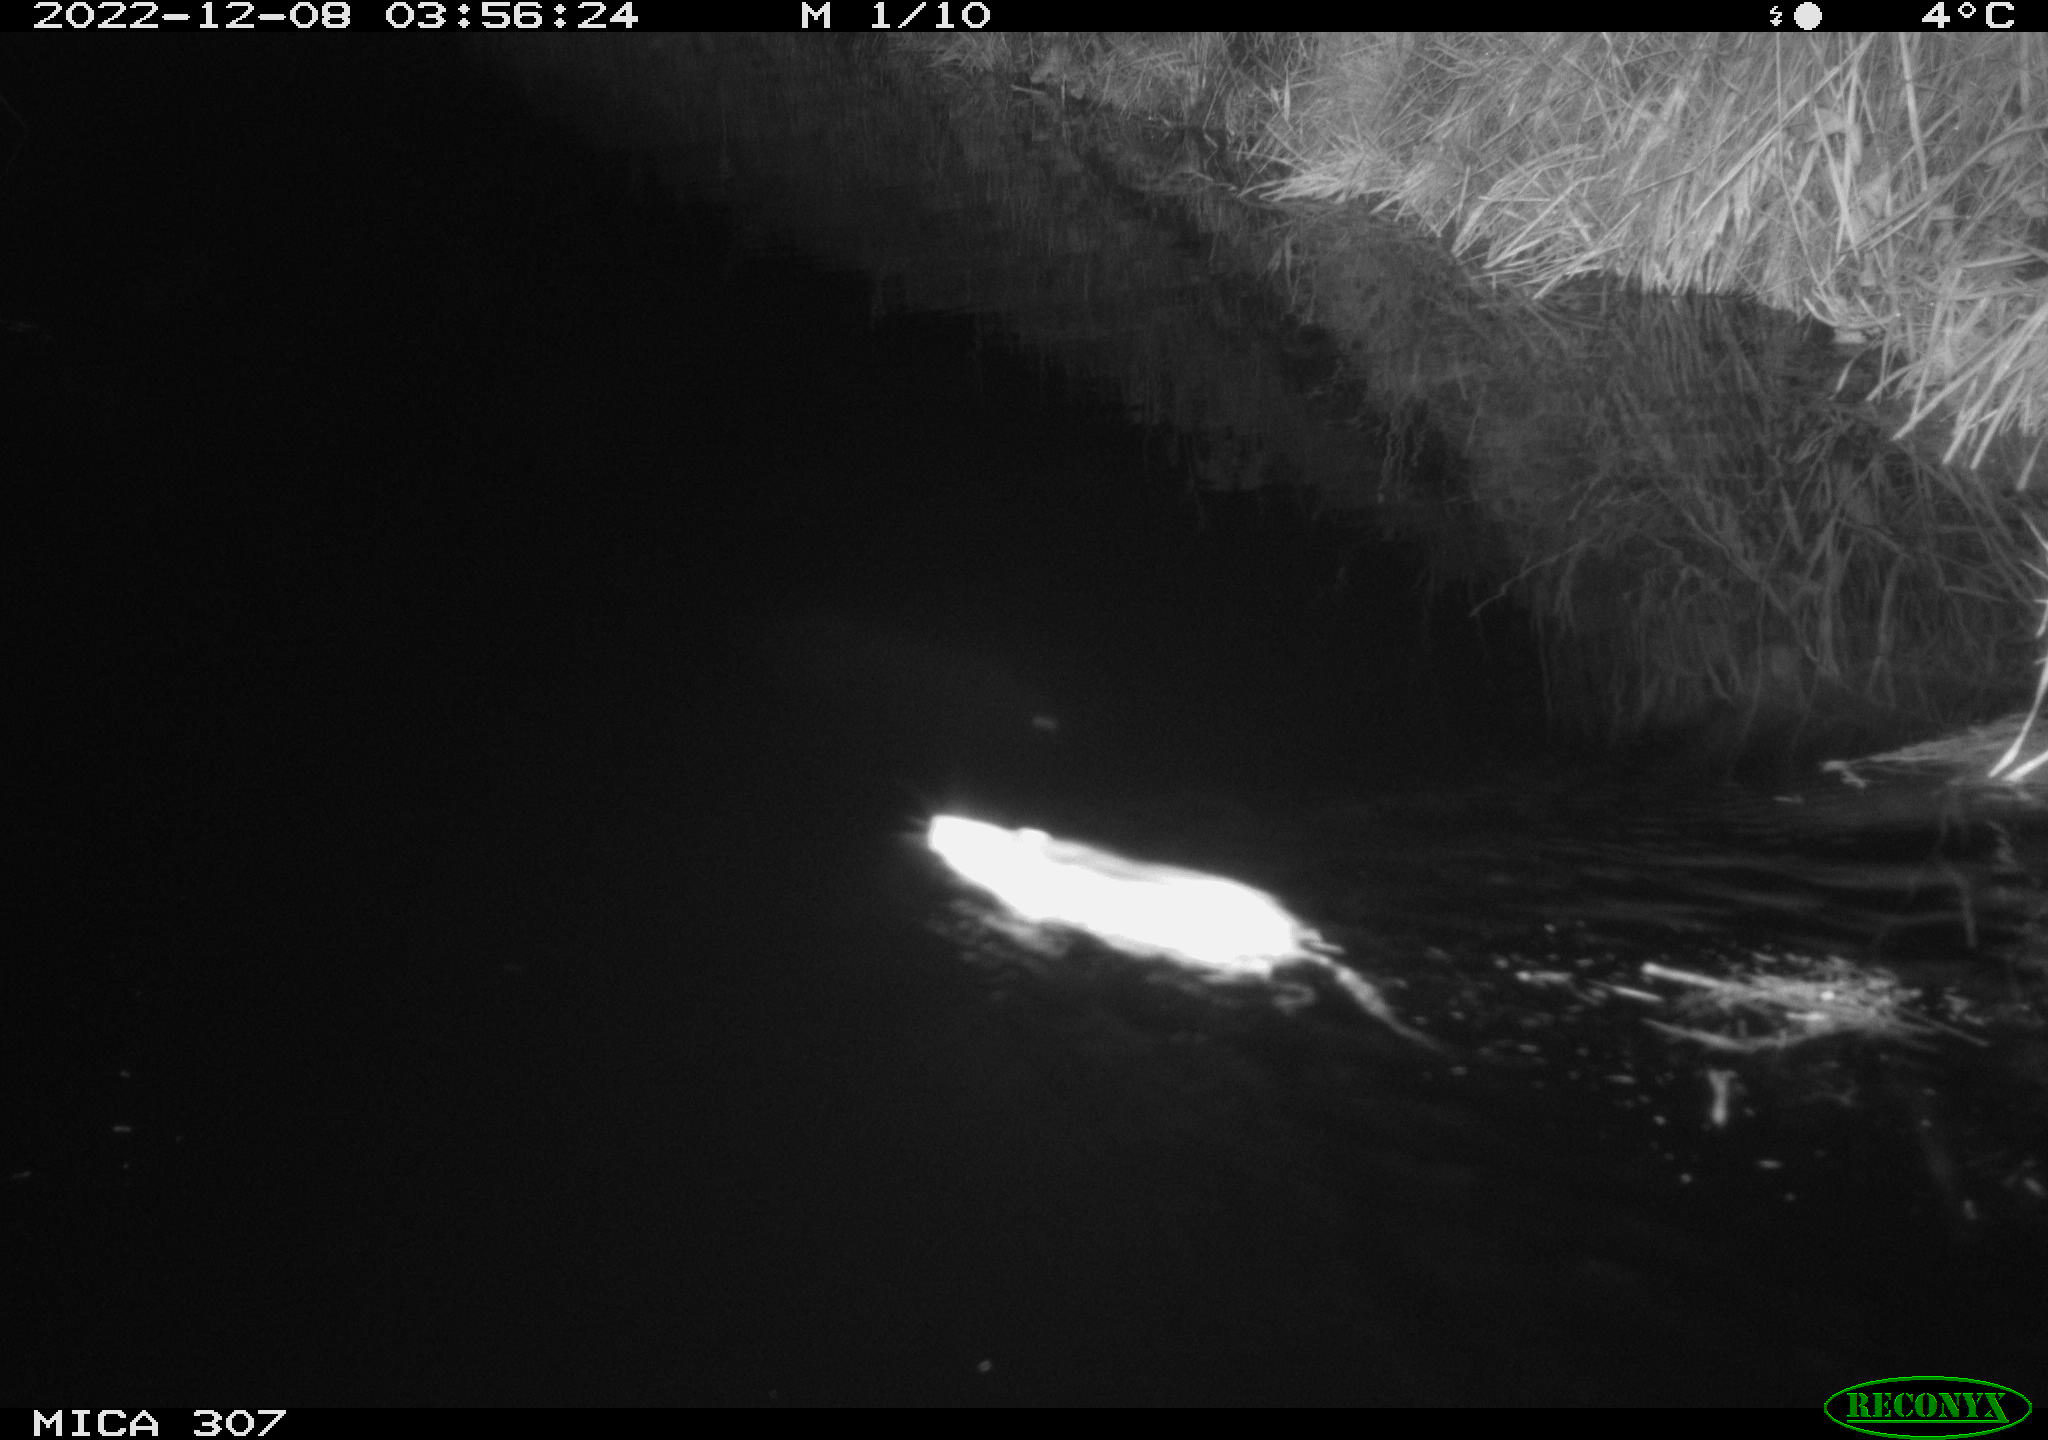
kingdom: Animalia
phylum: Chordata
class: Mammalia
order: Rodentia
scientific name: Rodentia
